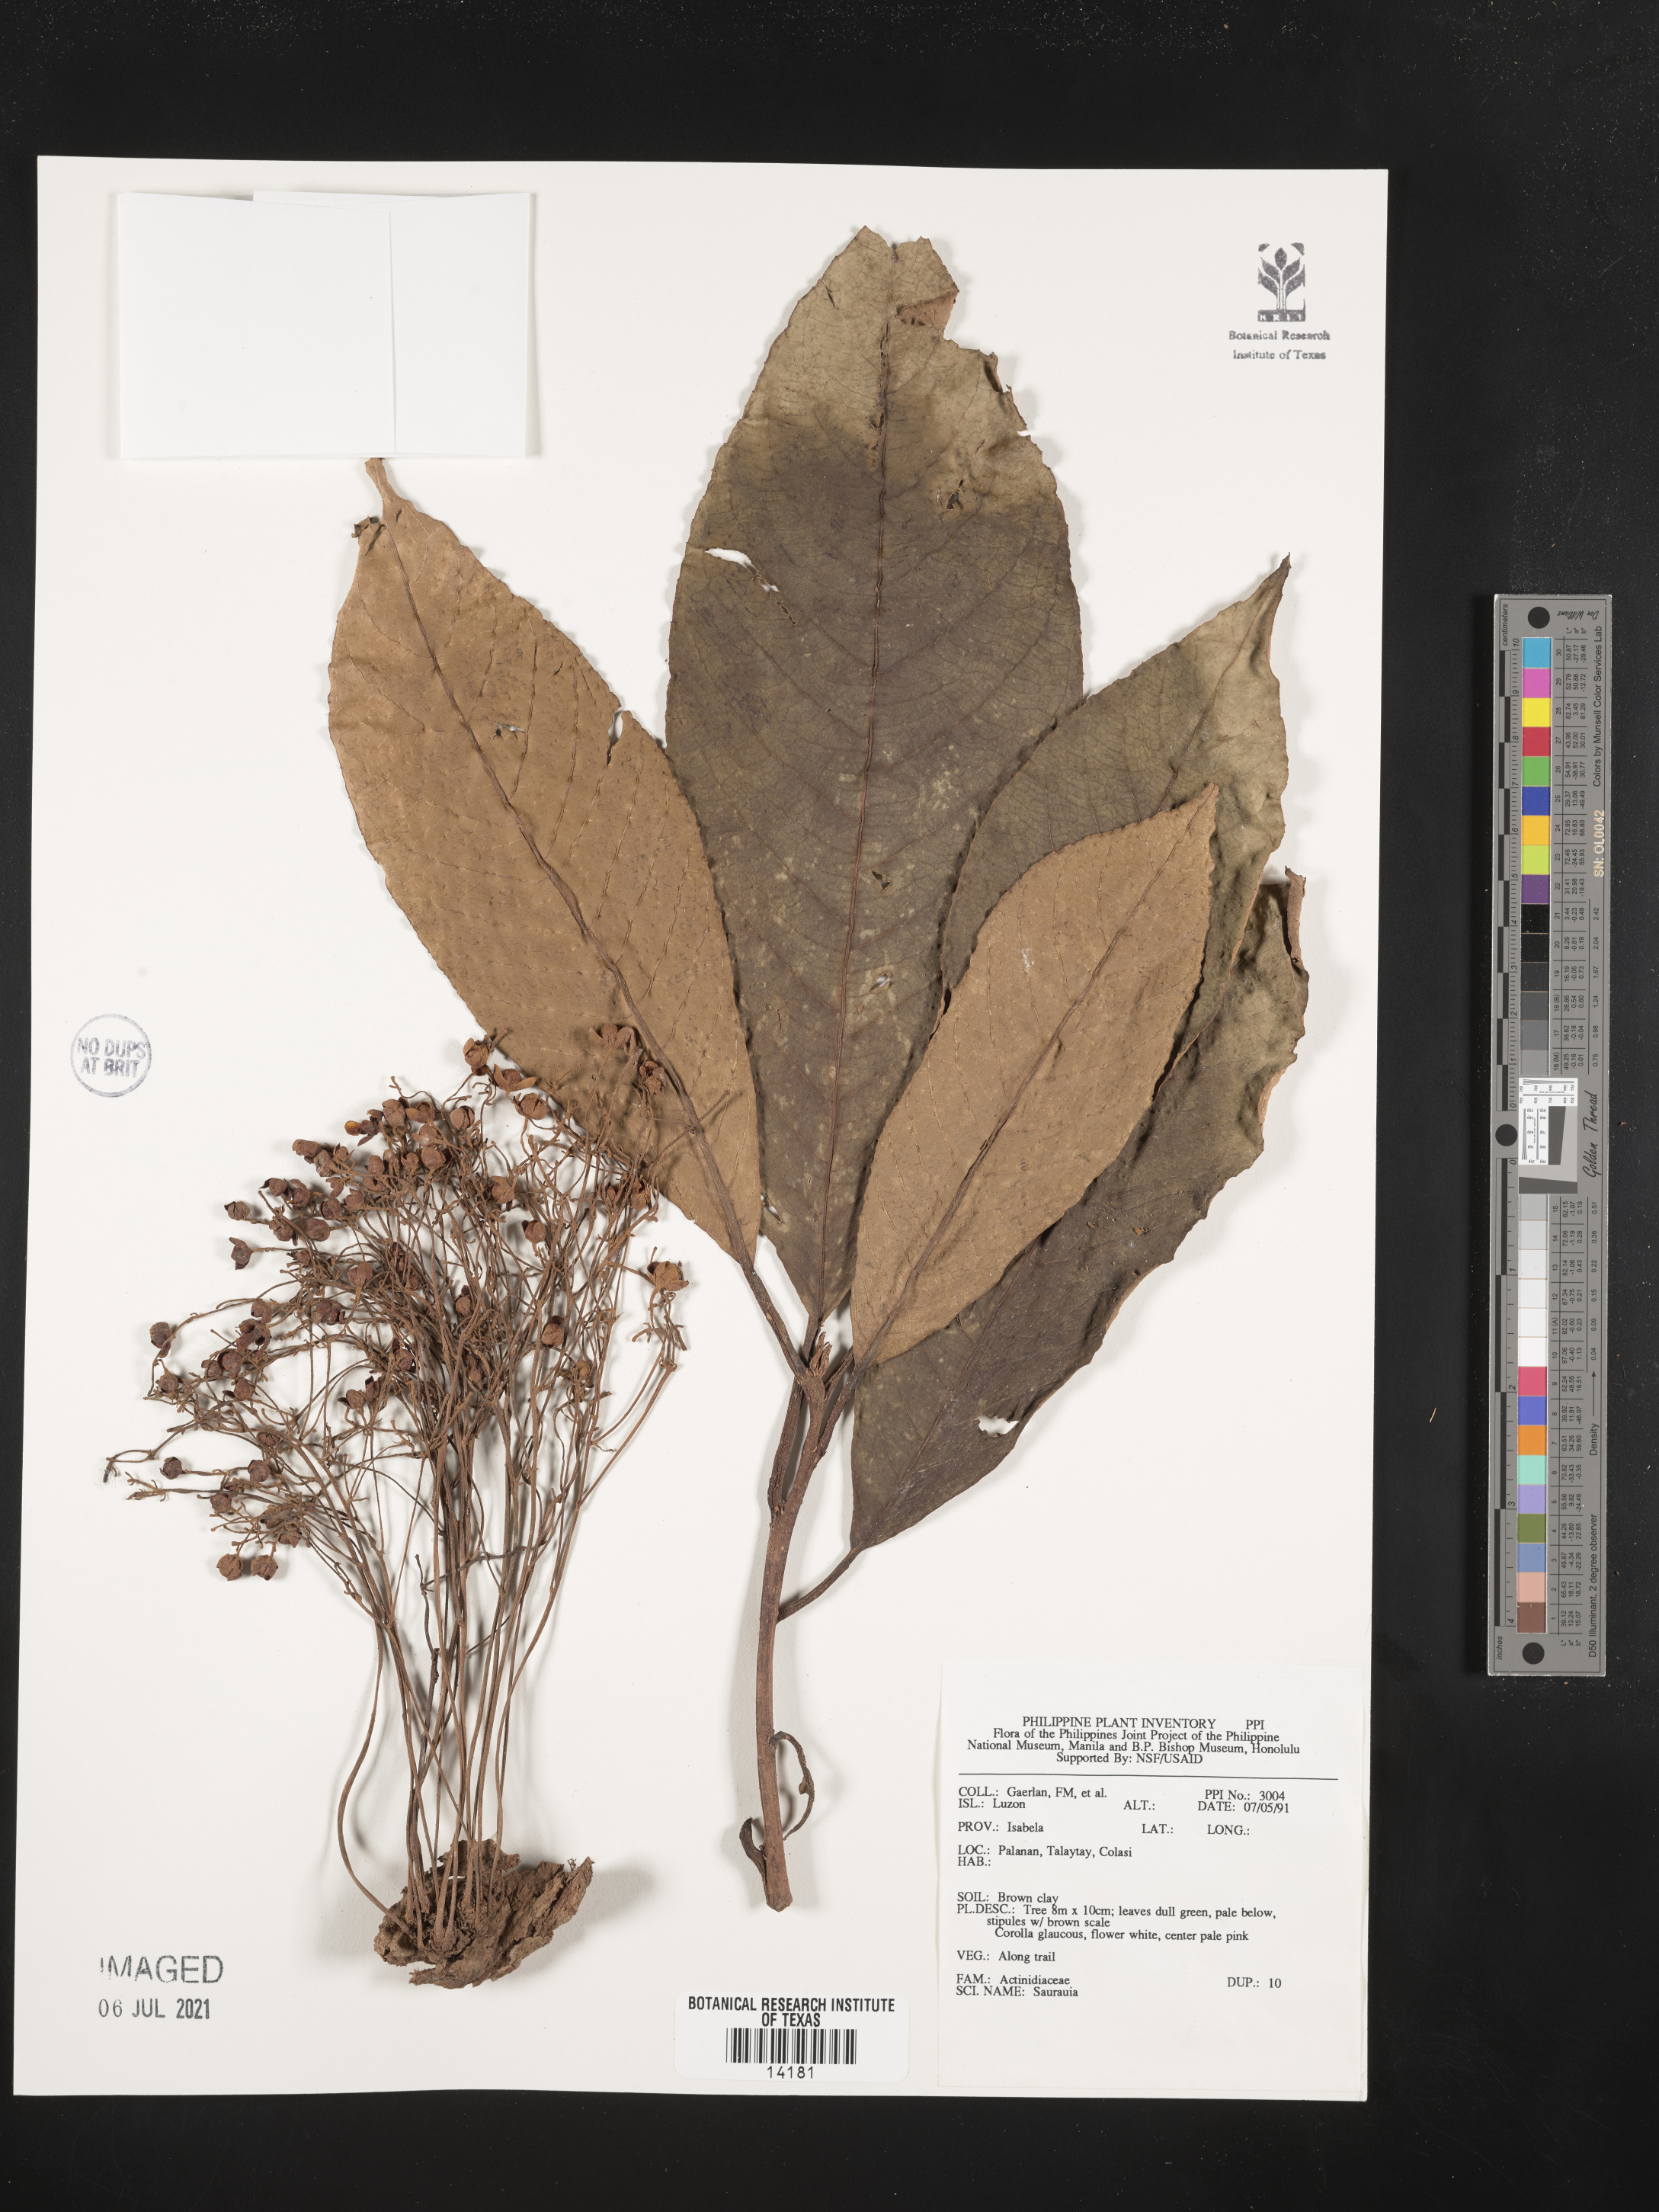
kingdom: Plantae
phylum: Tracheophyta
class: Magnoliopsida
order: Ericales
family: Actinidiaceae
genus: Saurauia
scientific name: Saurauia
